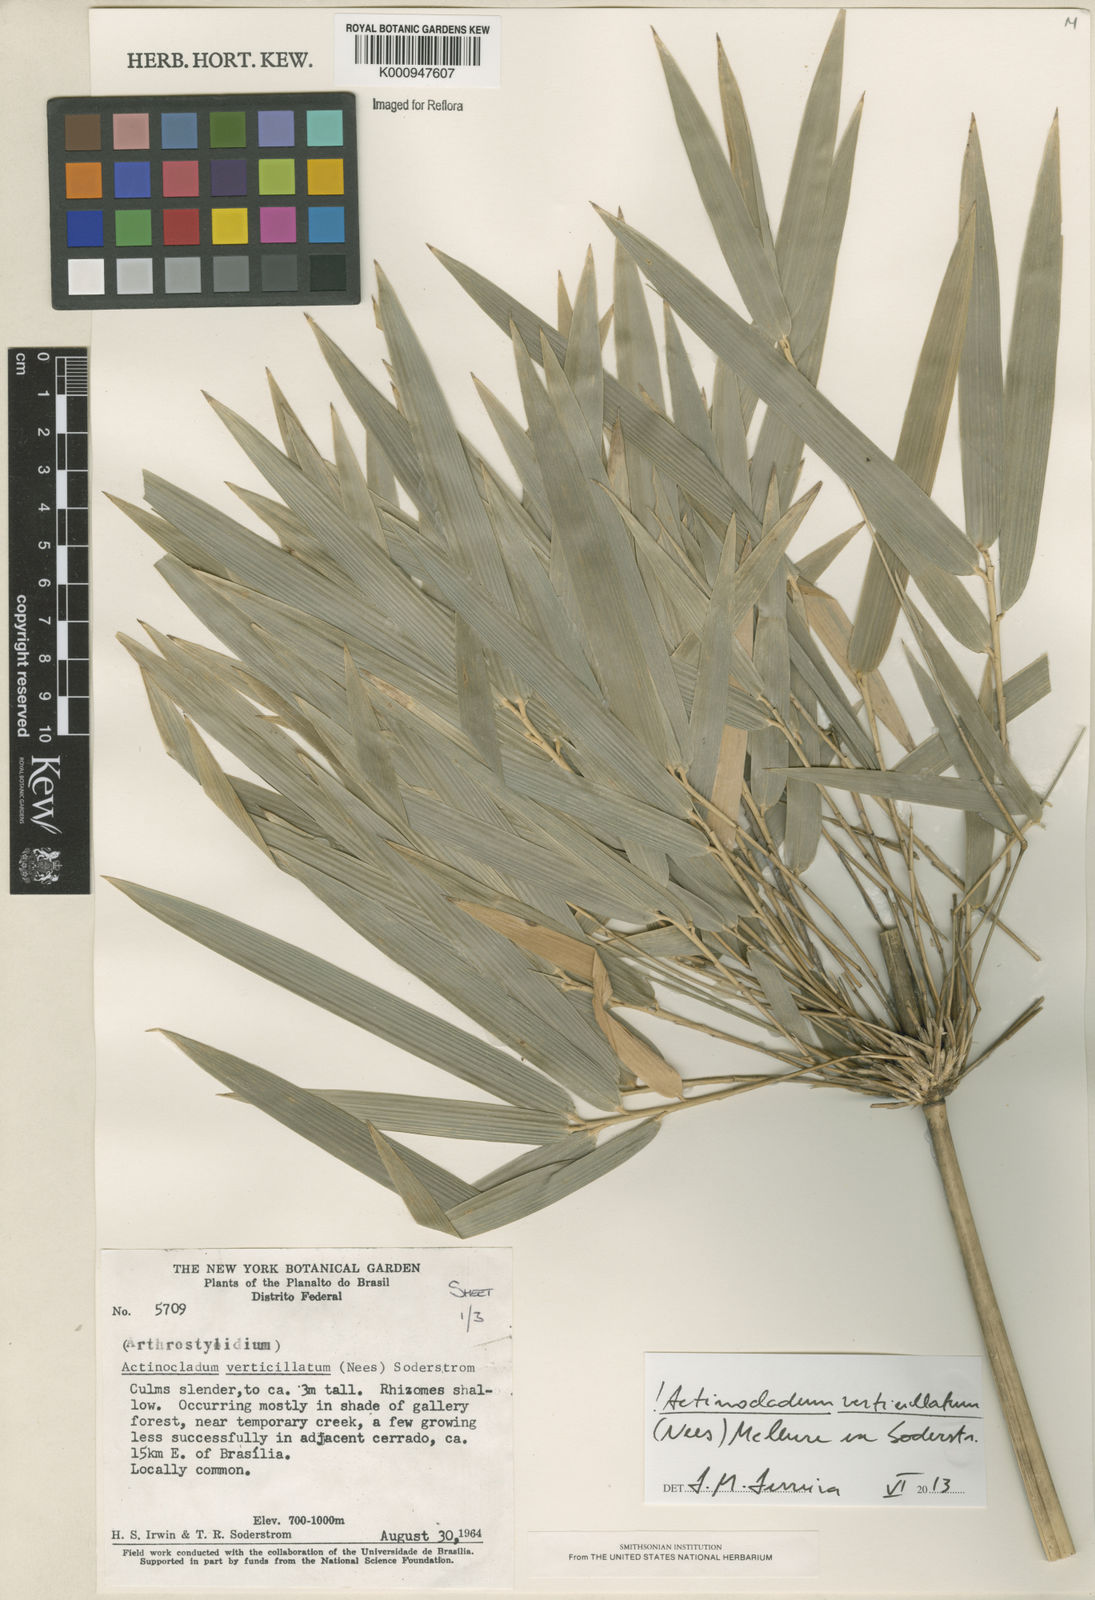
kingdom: Plantae
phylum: Tracheophyta
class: Liliopsida
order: Poales
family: Poaceae
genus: Actinocladum
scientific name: Actinocladum verticillatum
